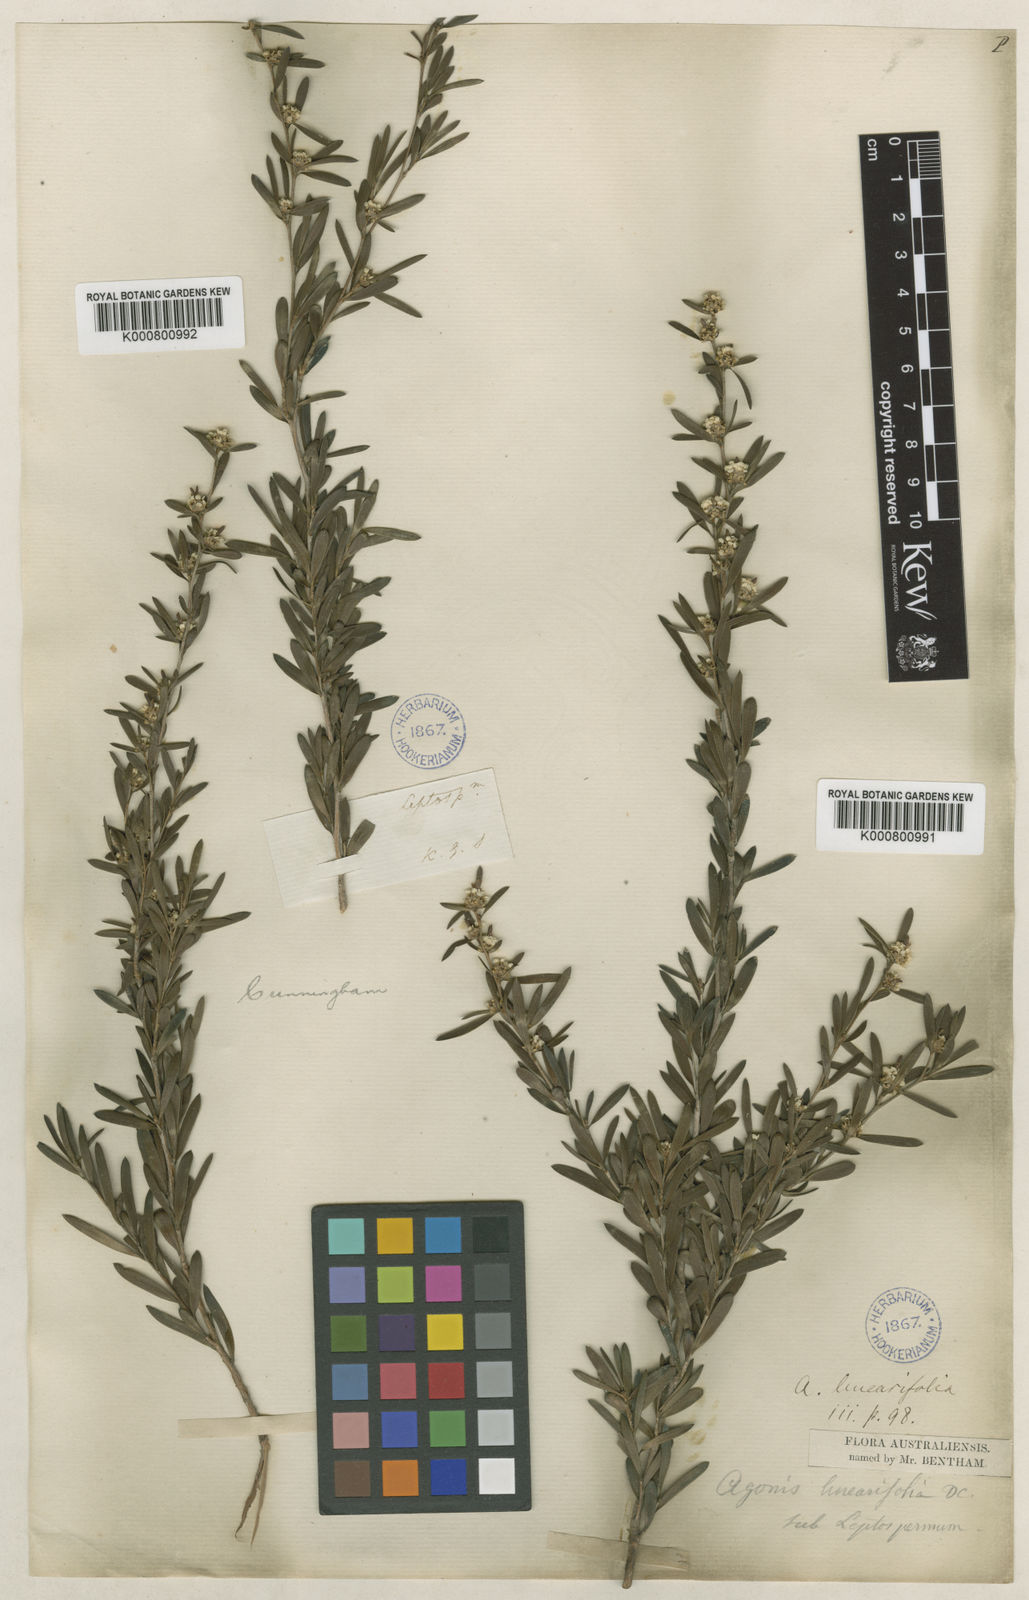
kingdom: Plantae
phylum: Tracheophyta
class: Magnoliopsida
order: Myrtales
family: Myrtaceae
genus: Taxandria
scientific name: Taxandria linearifolia
